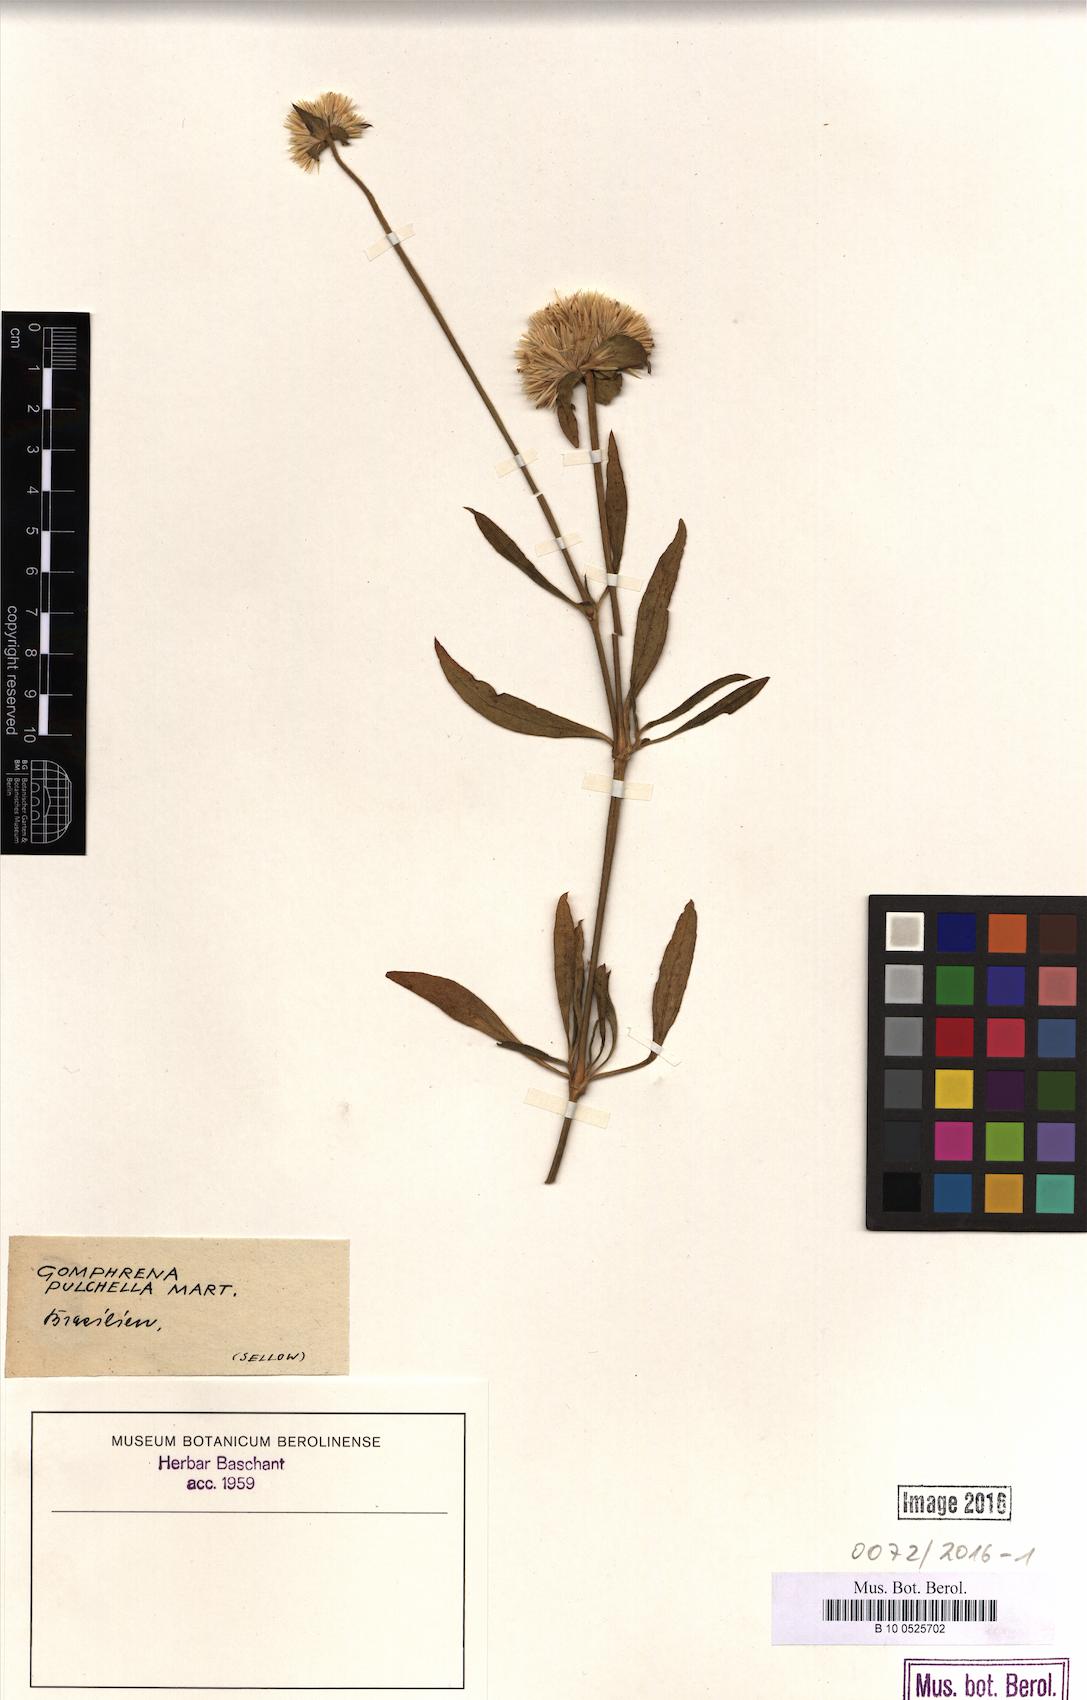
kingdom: Plantae
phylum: Tracheophyta
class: Magnoliopsida
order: Caryophyllales
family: Amaranthaceae
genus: Gomphrena
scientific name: Gomphrena pulchella
